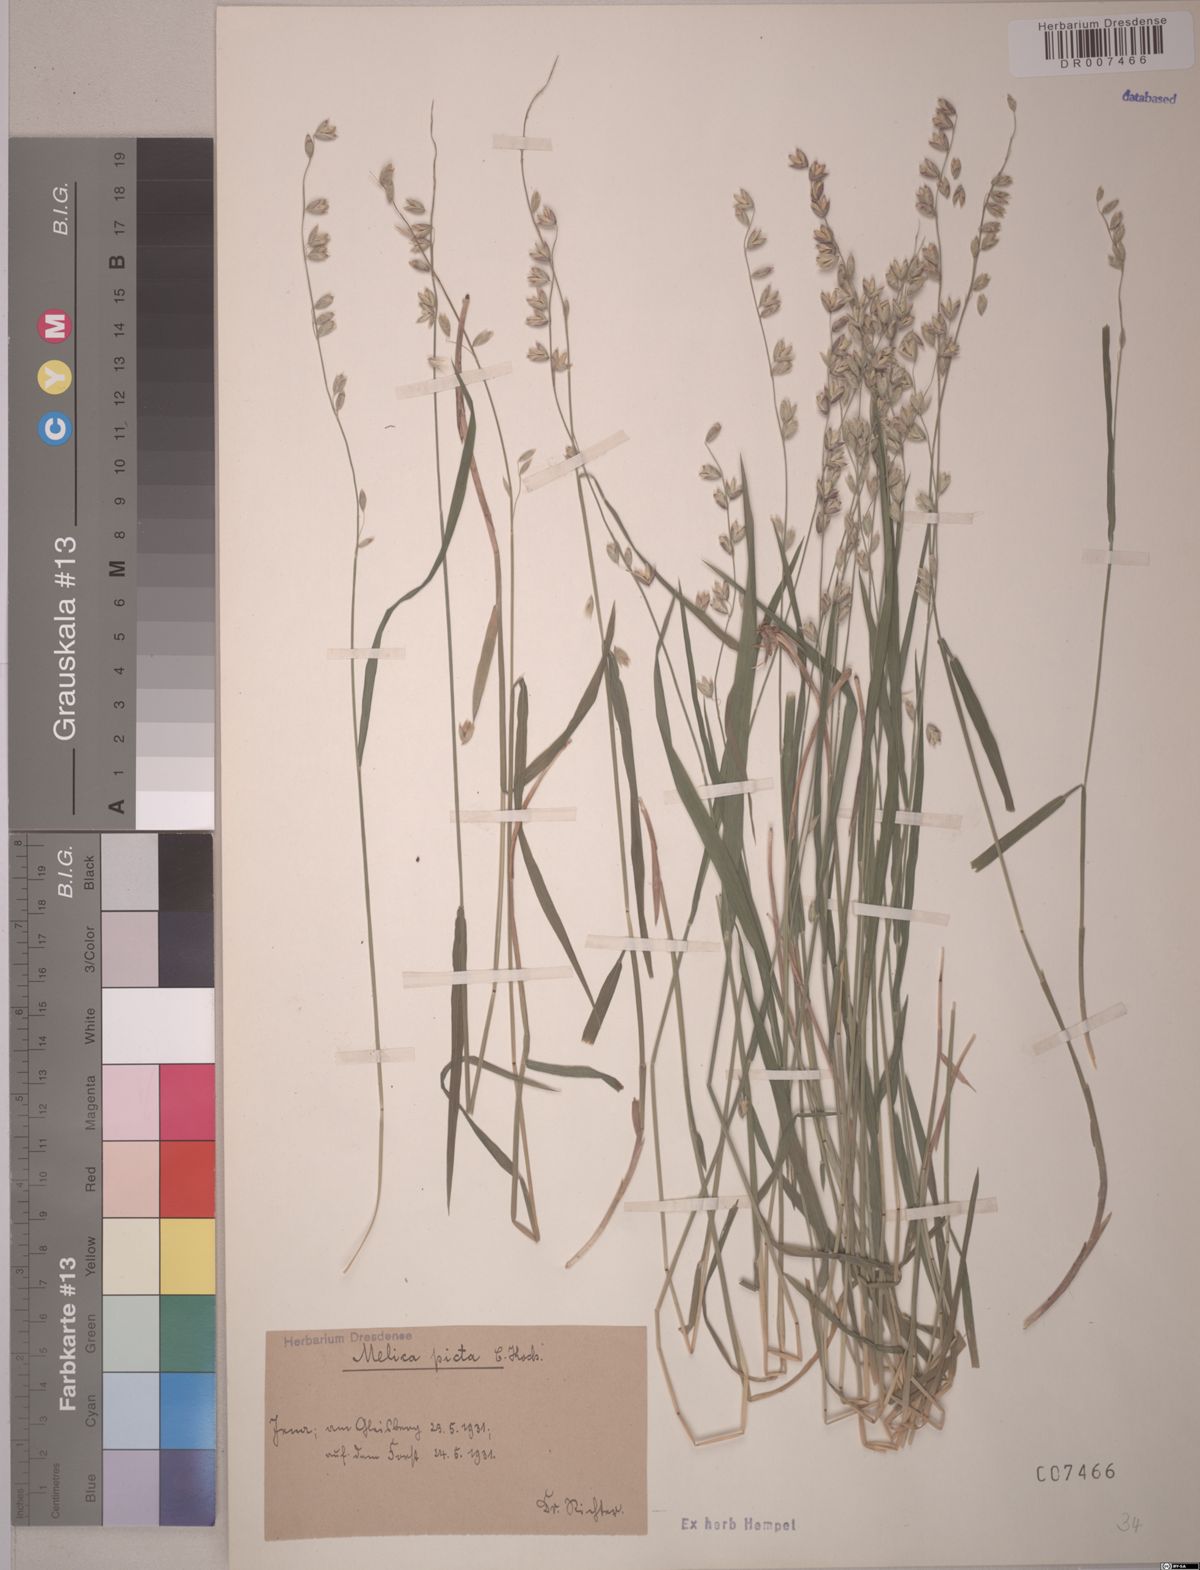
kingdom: Plantae
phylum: Tracheophyta
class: Liliopsida
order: Poales
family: Poaceae
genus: Melica
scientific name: Melica picta
